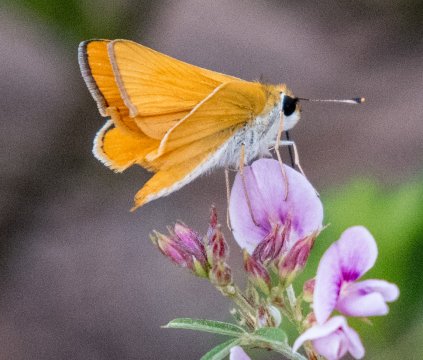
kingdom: Animalia
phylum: Arthropoda
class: Insecta
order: Lepidoptera
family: Hesperiidae
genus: Copaeodes
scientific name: Copaeodes minima
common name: Southern Skipperling
